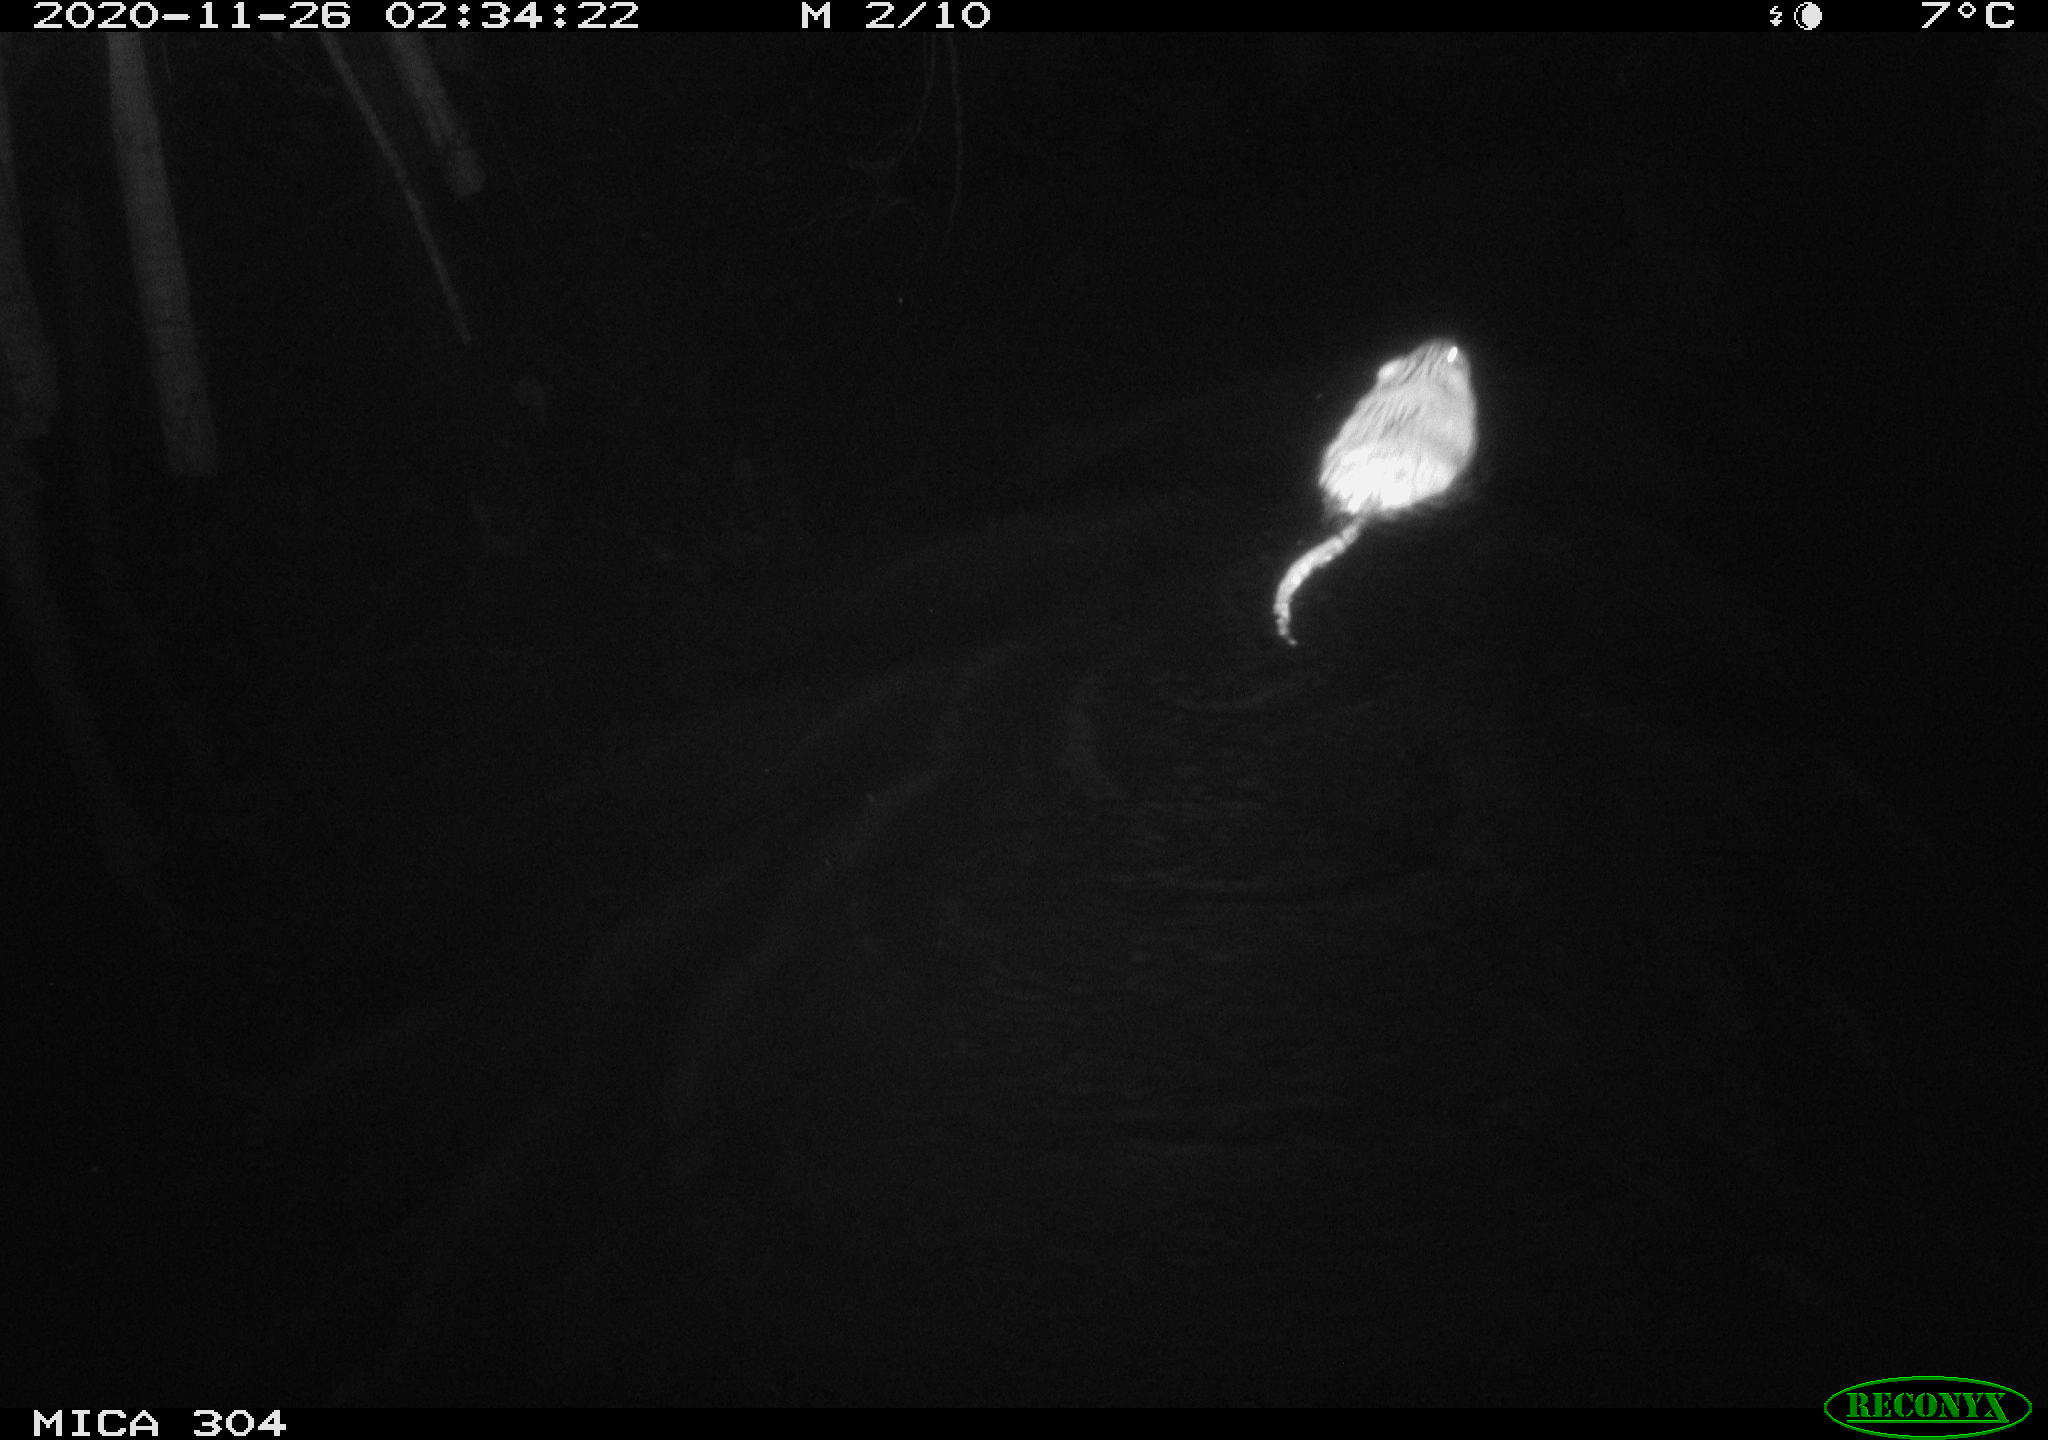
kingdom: Animalia
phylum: Chordata
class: Mammalia
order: Rodentia
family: Cricetidae
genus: Ondatra
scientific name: Ondatra zibethicus
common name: Muskrat
